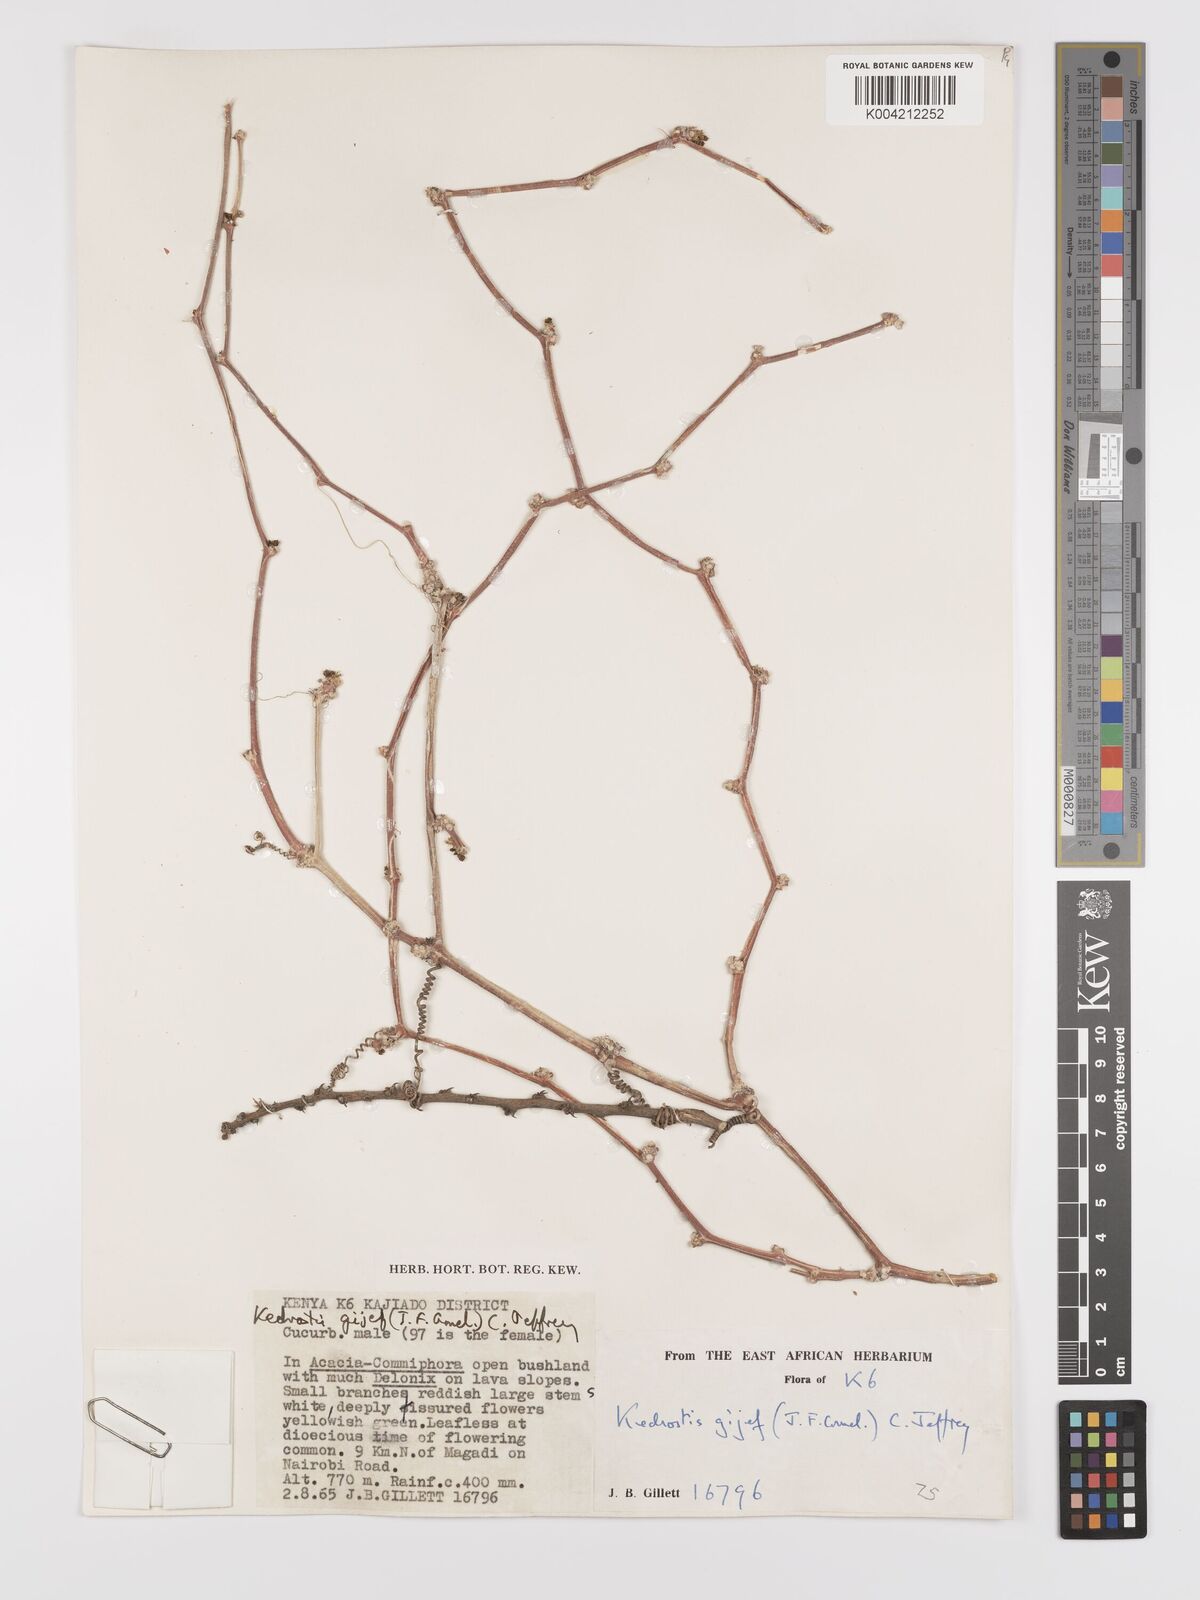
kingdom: Plantae
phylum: Tracheophyta
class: Magnoliopsida
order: Cucurbitales
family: Cucurbitaceae
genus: Kedrostis
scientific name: Kedrostis gijef
